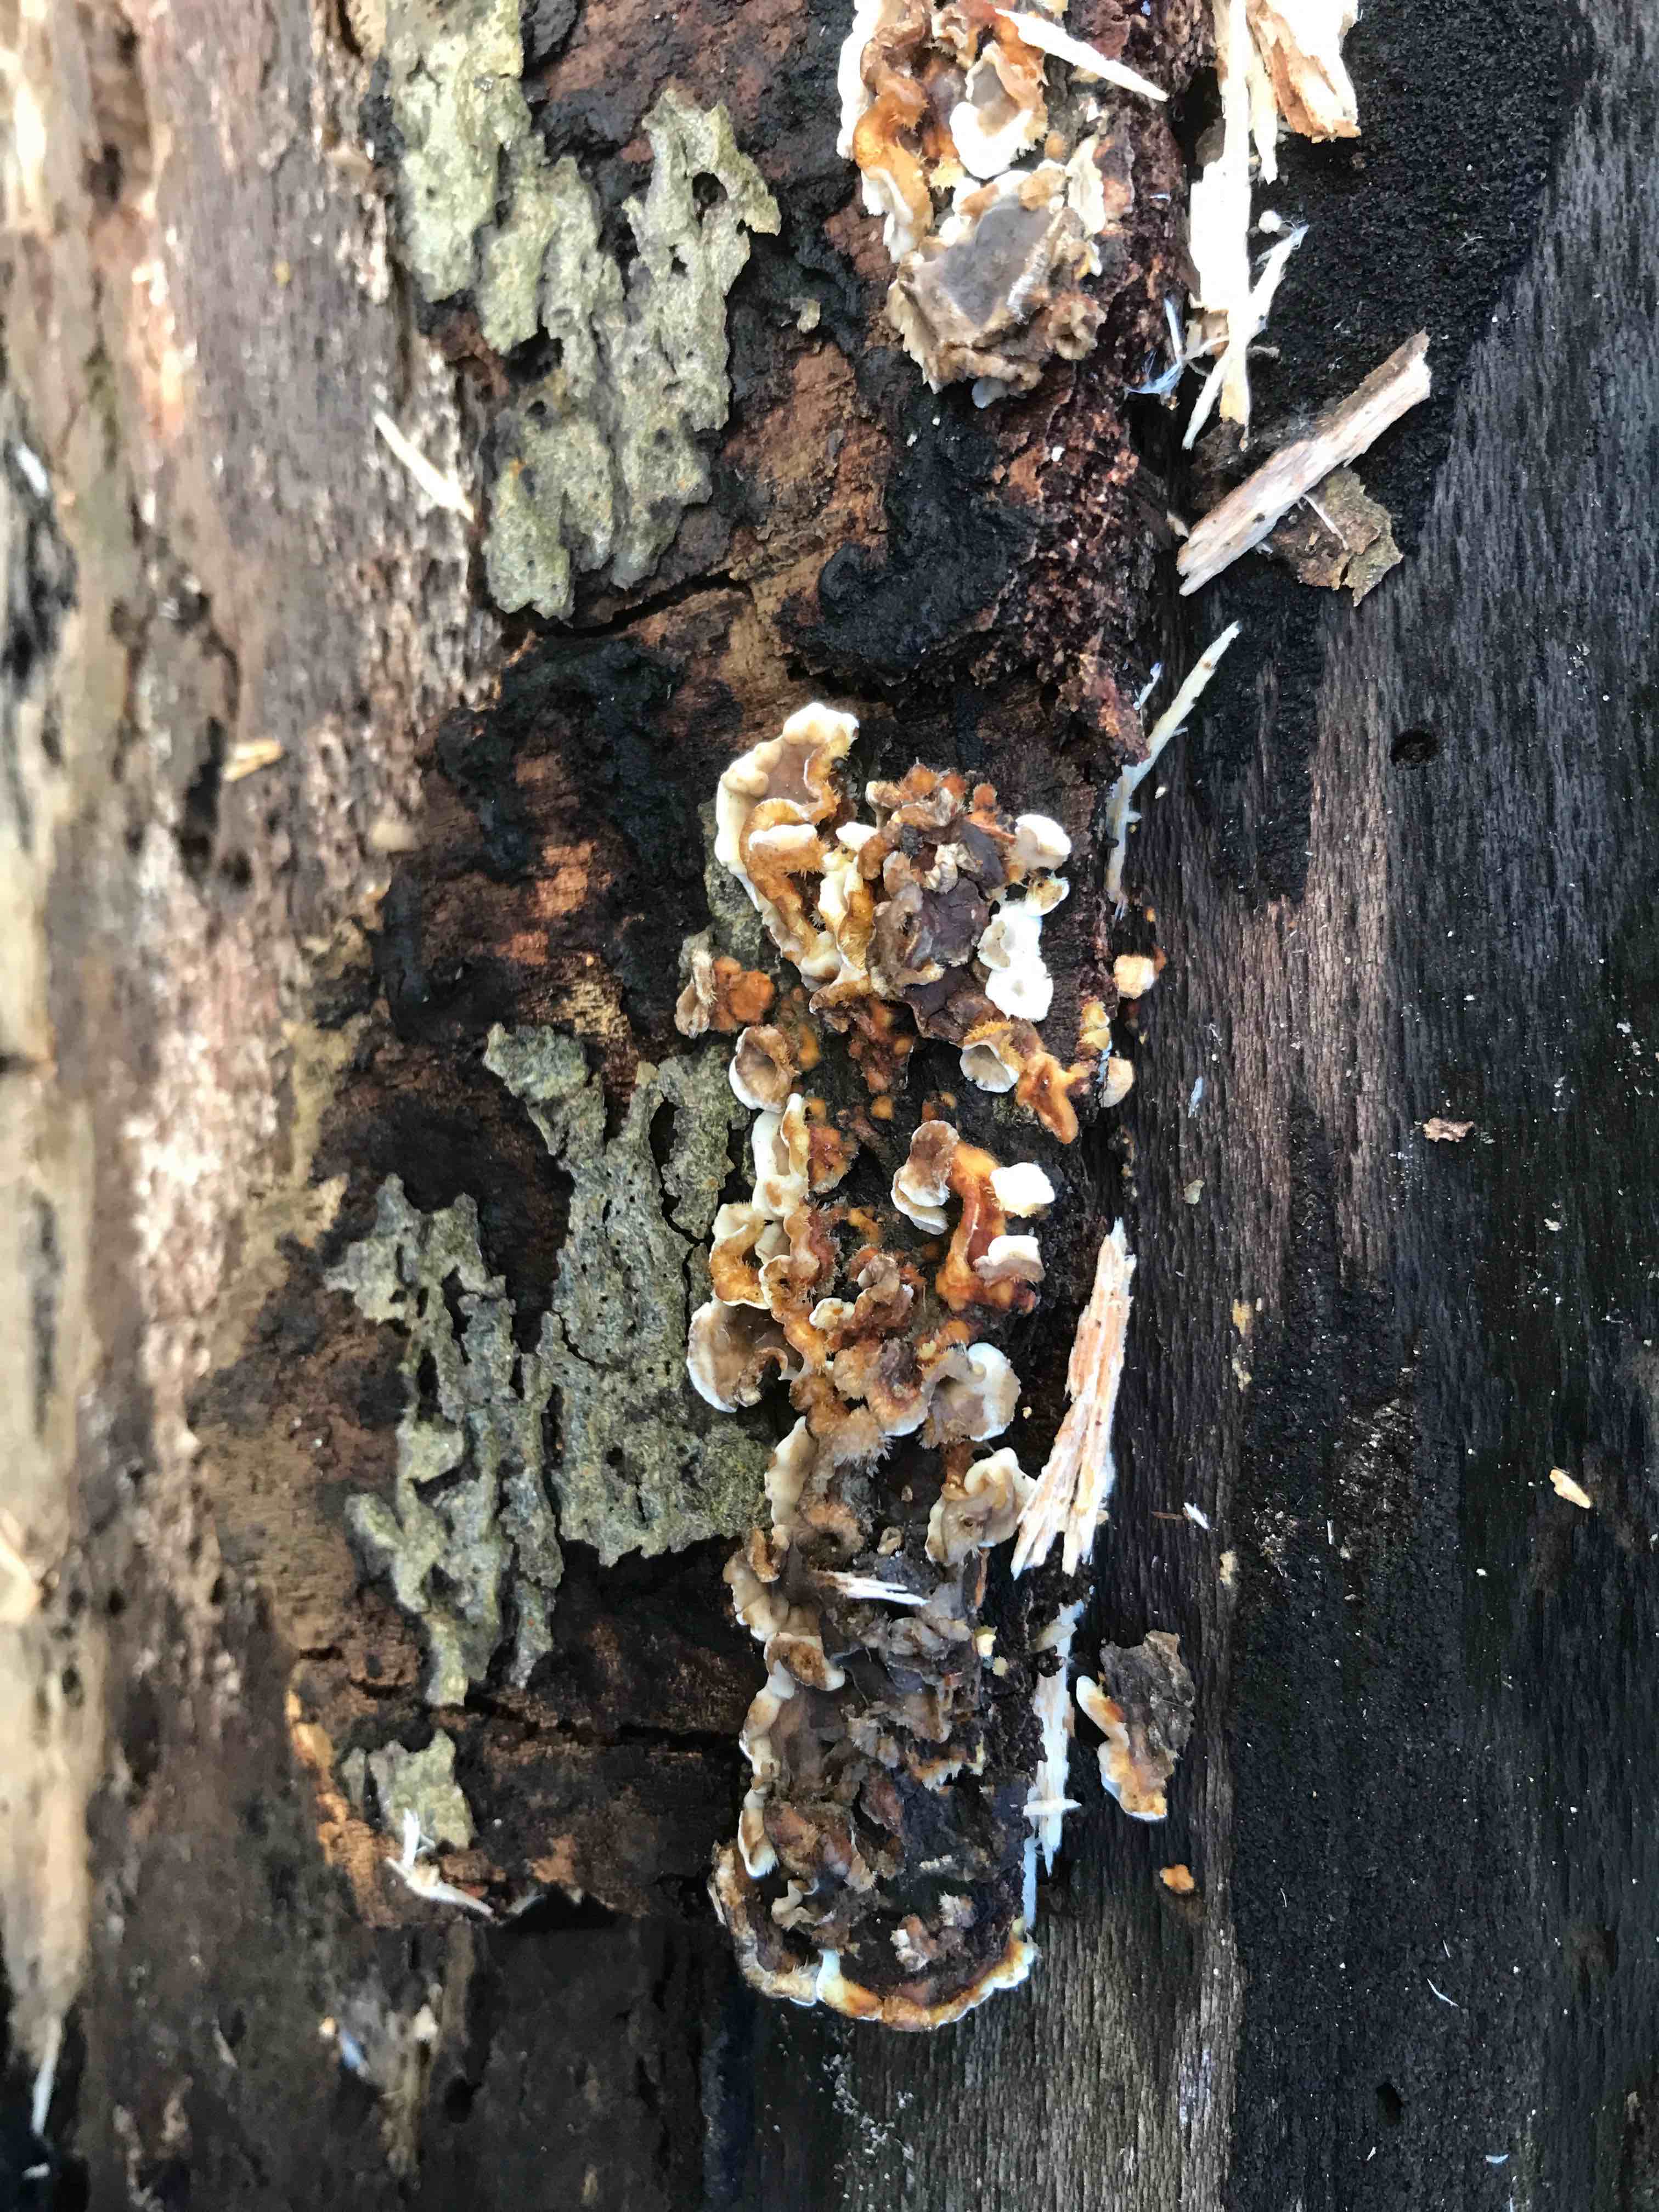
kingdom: Fungi
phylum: Basidiomycota
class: Agaricomycetes
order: Russulales
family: Stereaceae
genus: Stereum
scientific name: Stereum hirsutum
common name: håret lædersvamp
